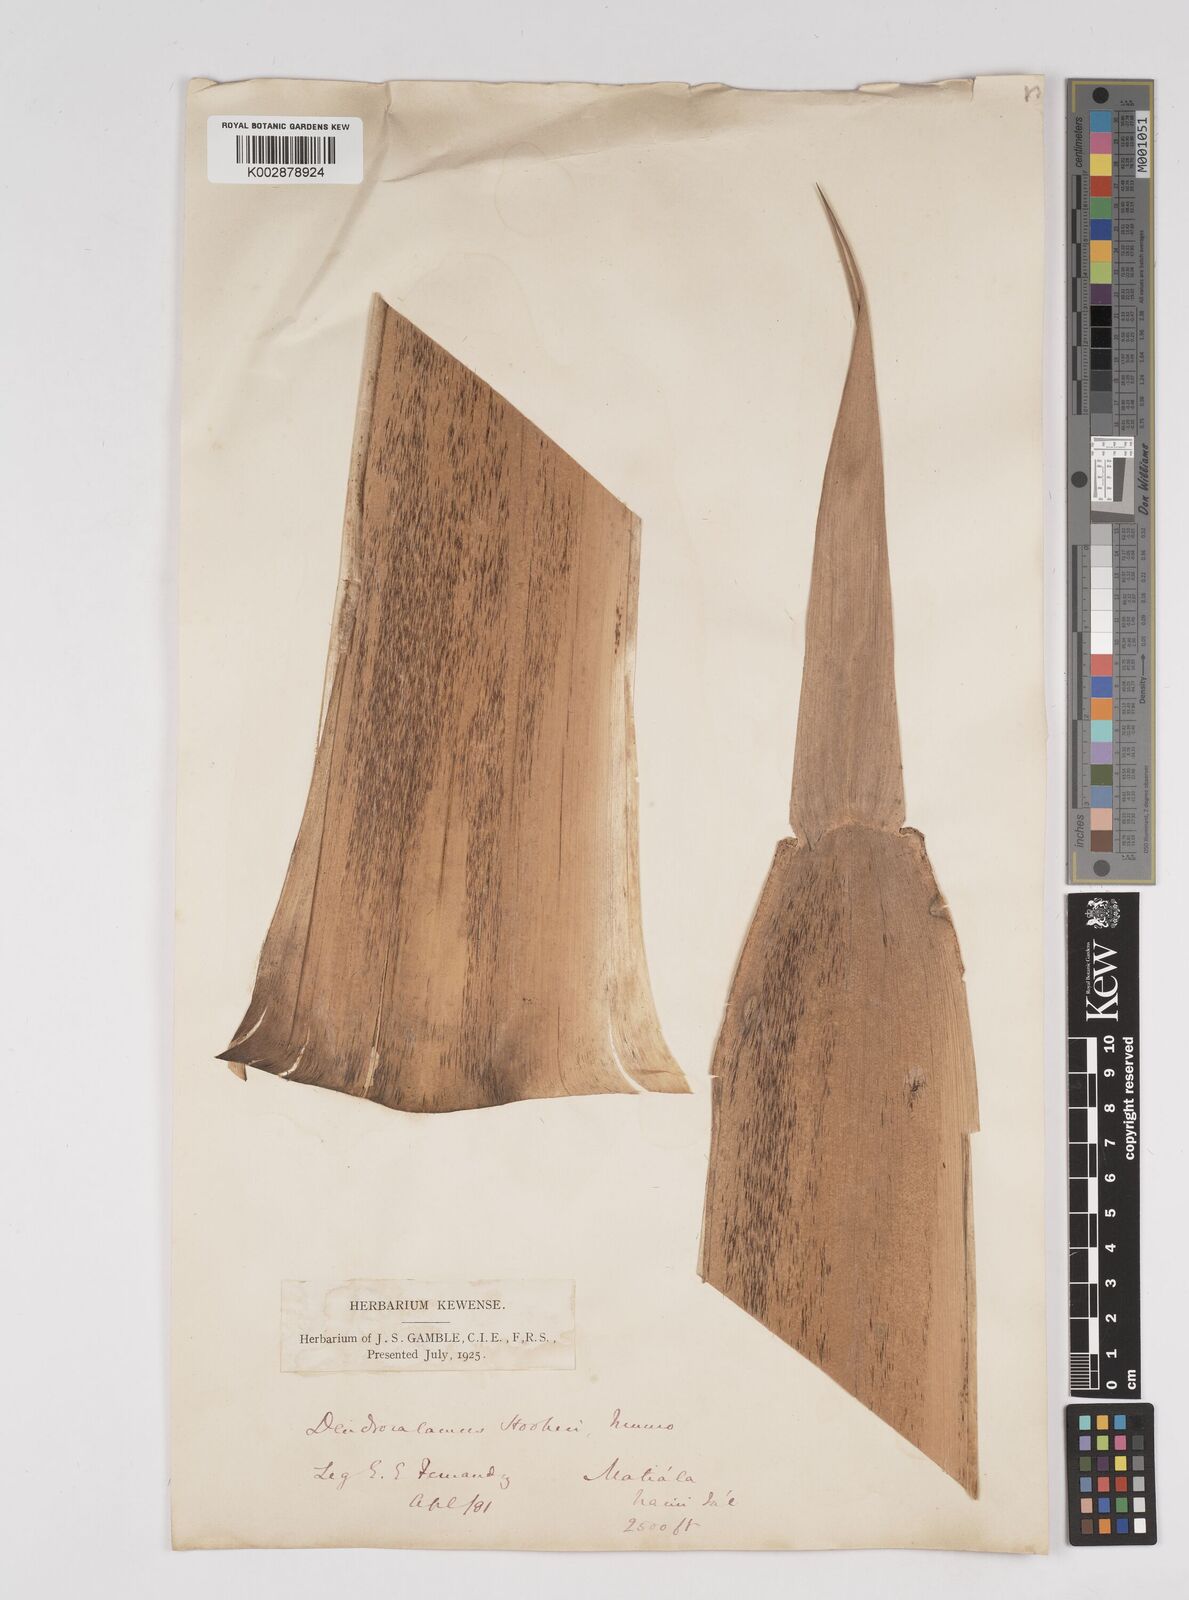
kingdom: Plantae
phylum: Tracheophyta
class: Liliopsida
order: Poales
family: Poaceae
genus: Dendrocalamus
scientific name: Dendrocalamus hookeri
